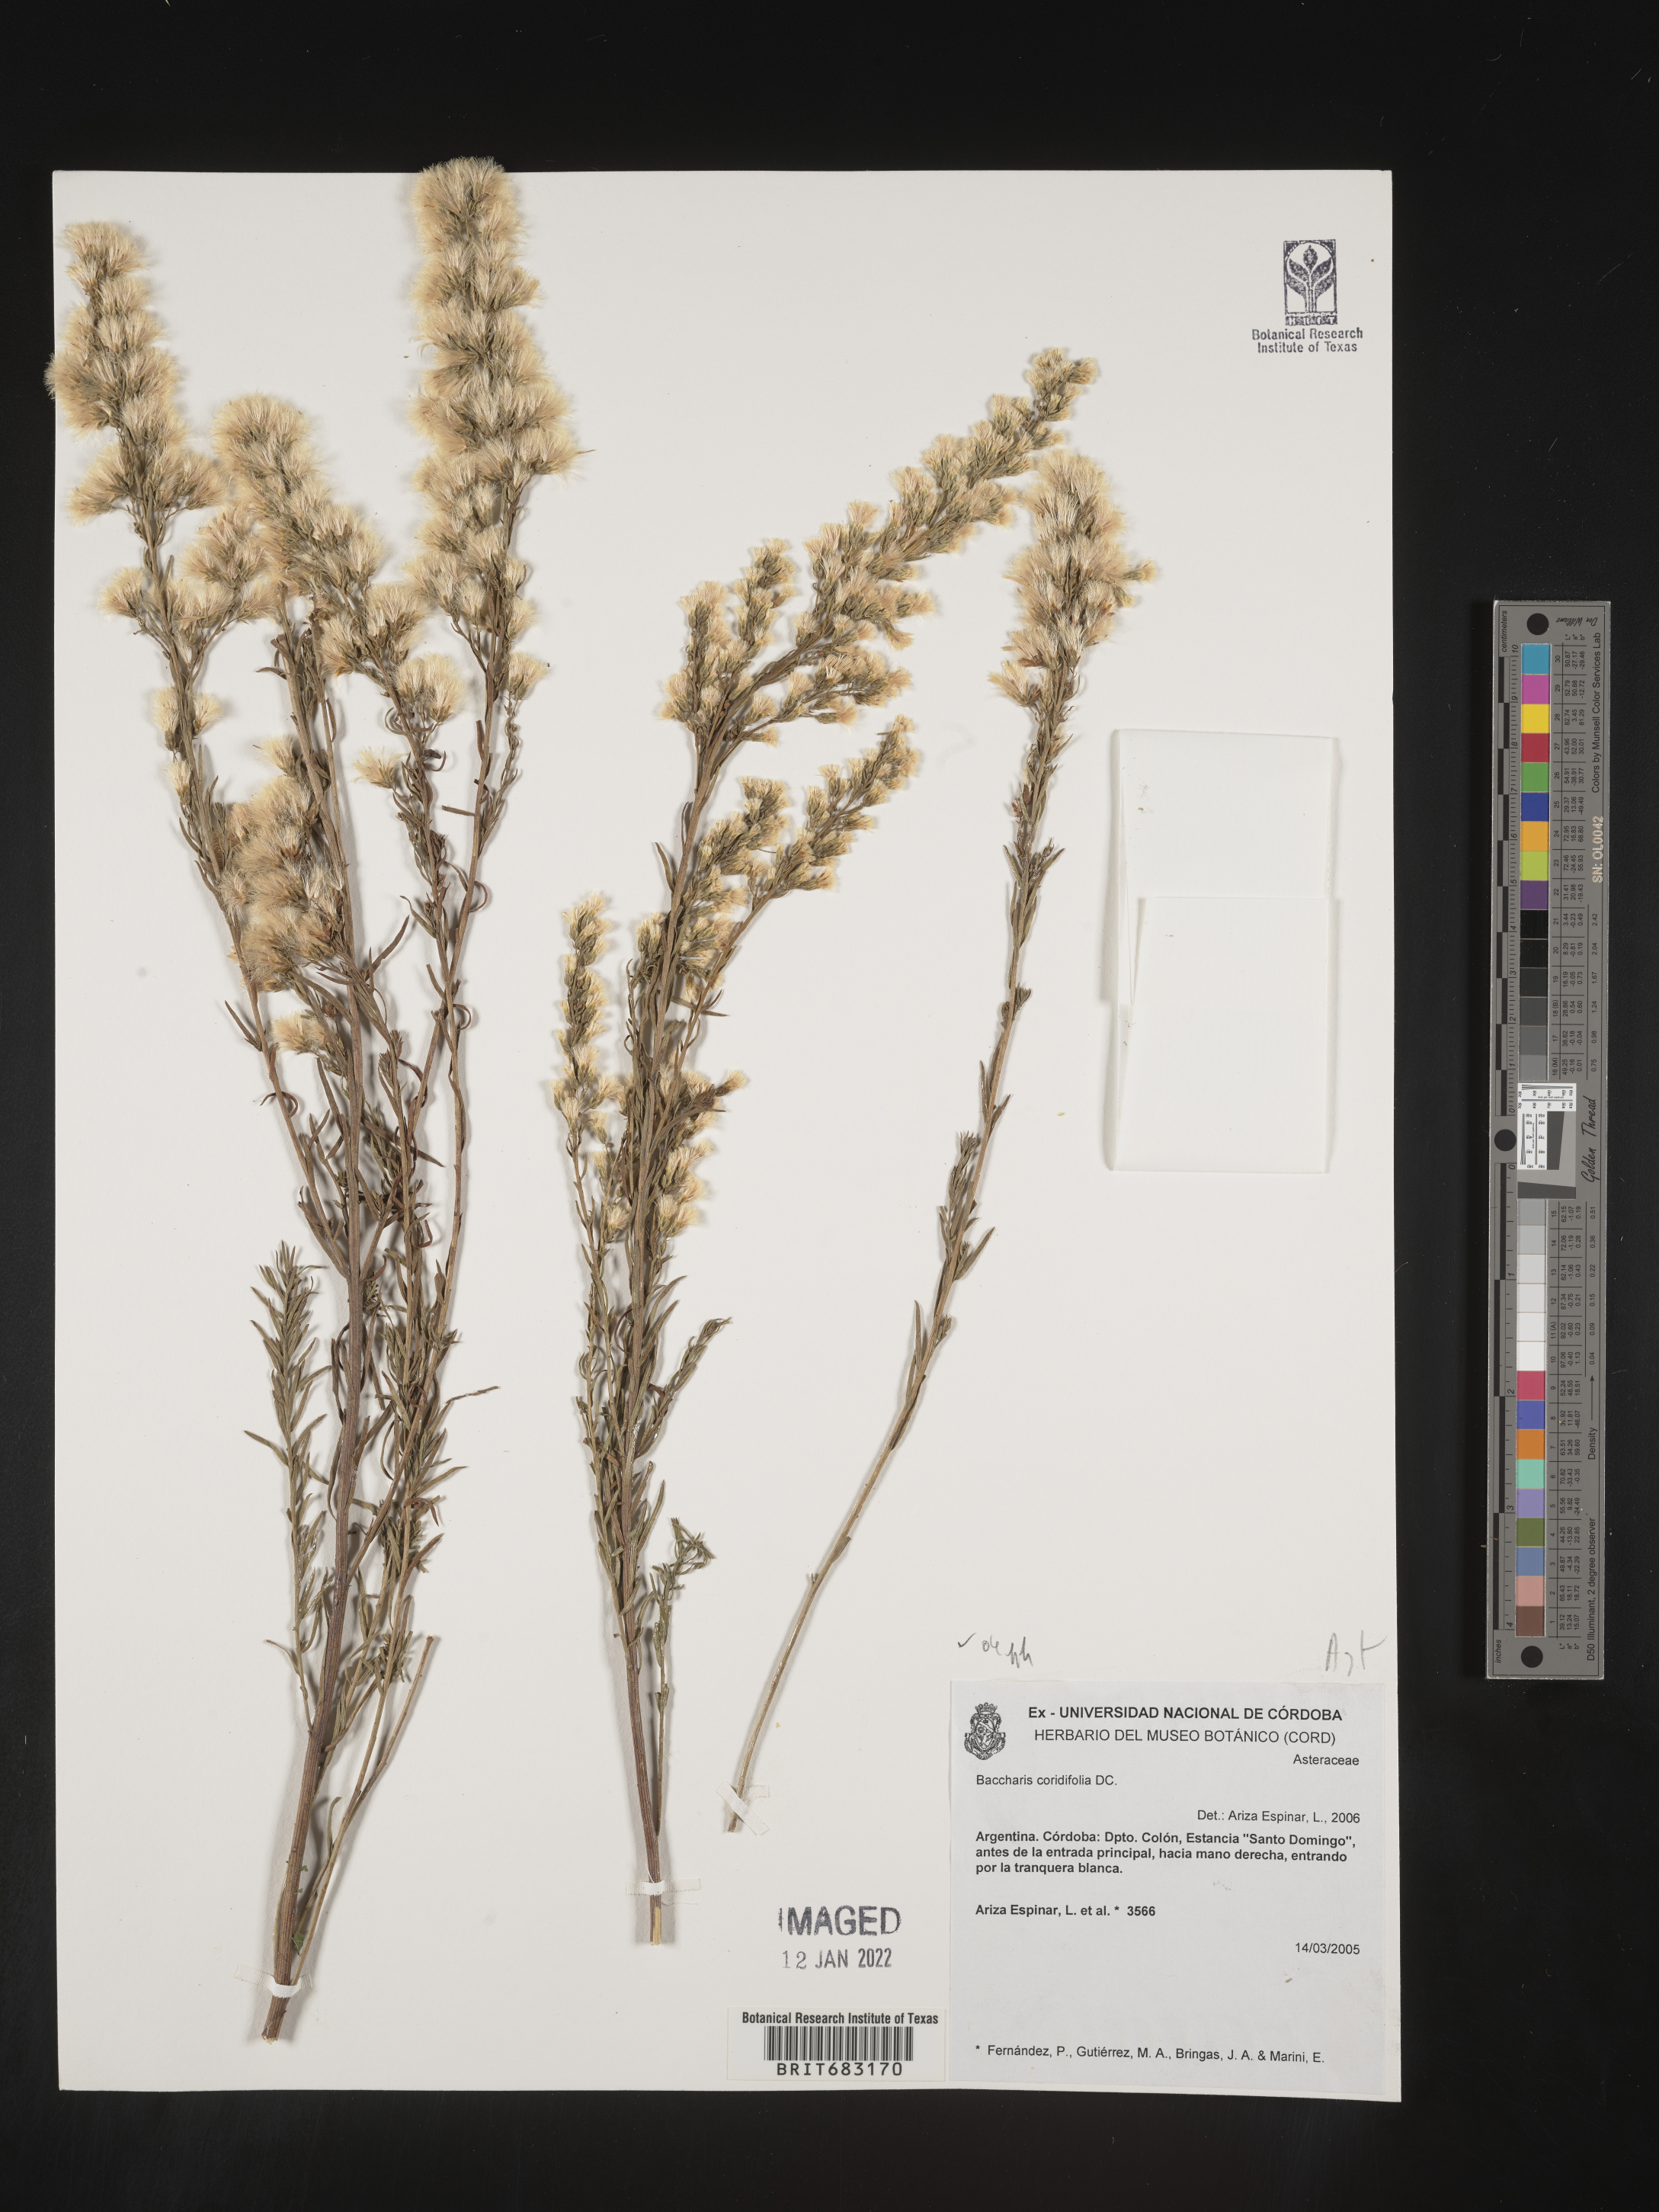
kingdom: Plantae
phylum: Tracheophyta
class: Magnoliopsida
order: Asterales
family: Asteraceae
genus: Baccharis
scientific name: Baccharis
